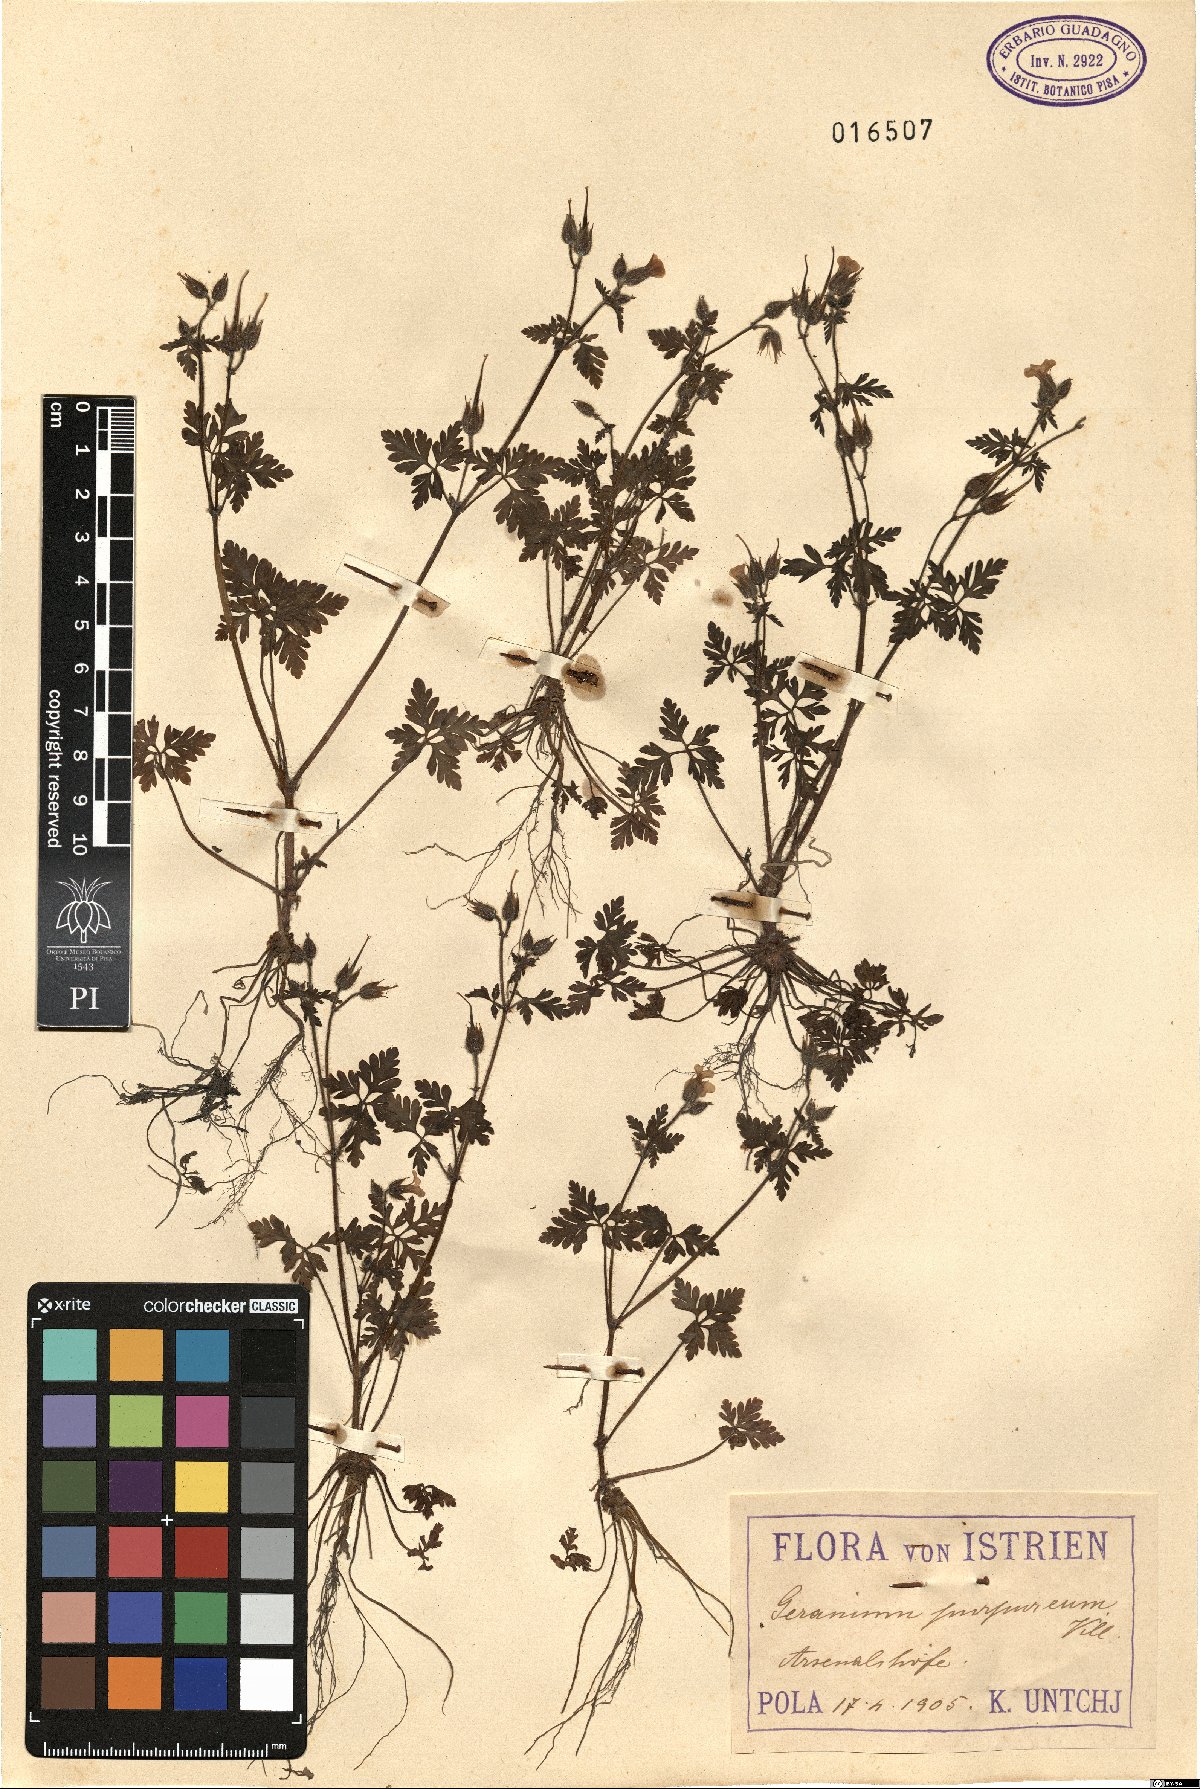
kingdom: Plantae
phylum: Tracheophyta
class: Magnoliopsida
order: Geraniales
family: Geraniaceae
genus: Geranium
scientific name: Geranium purpureum
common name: Little-robin
